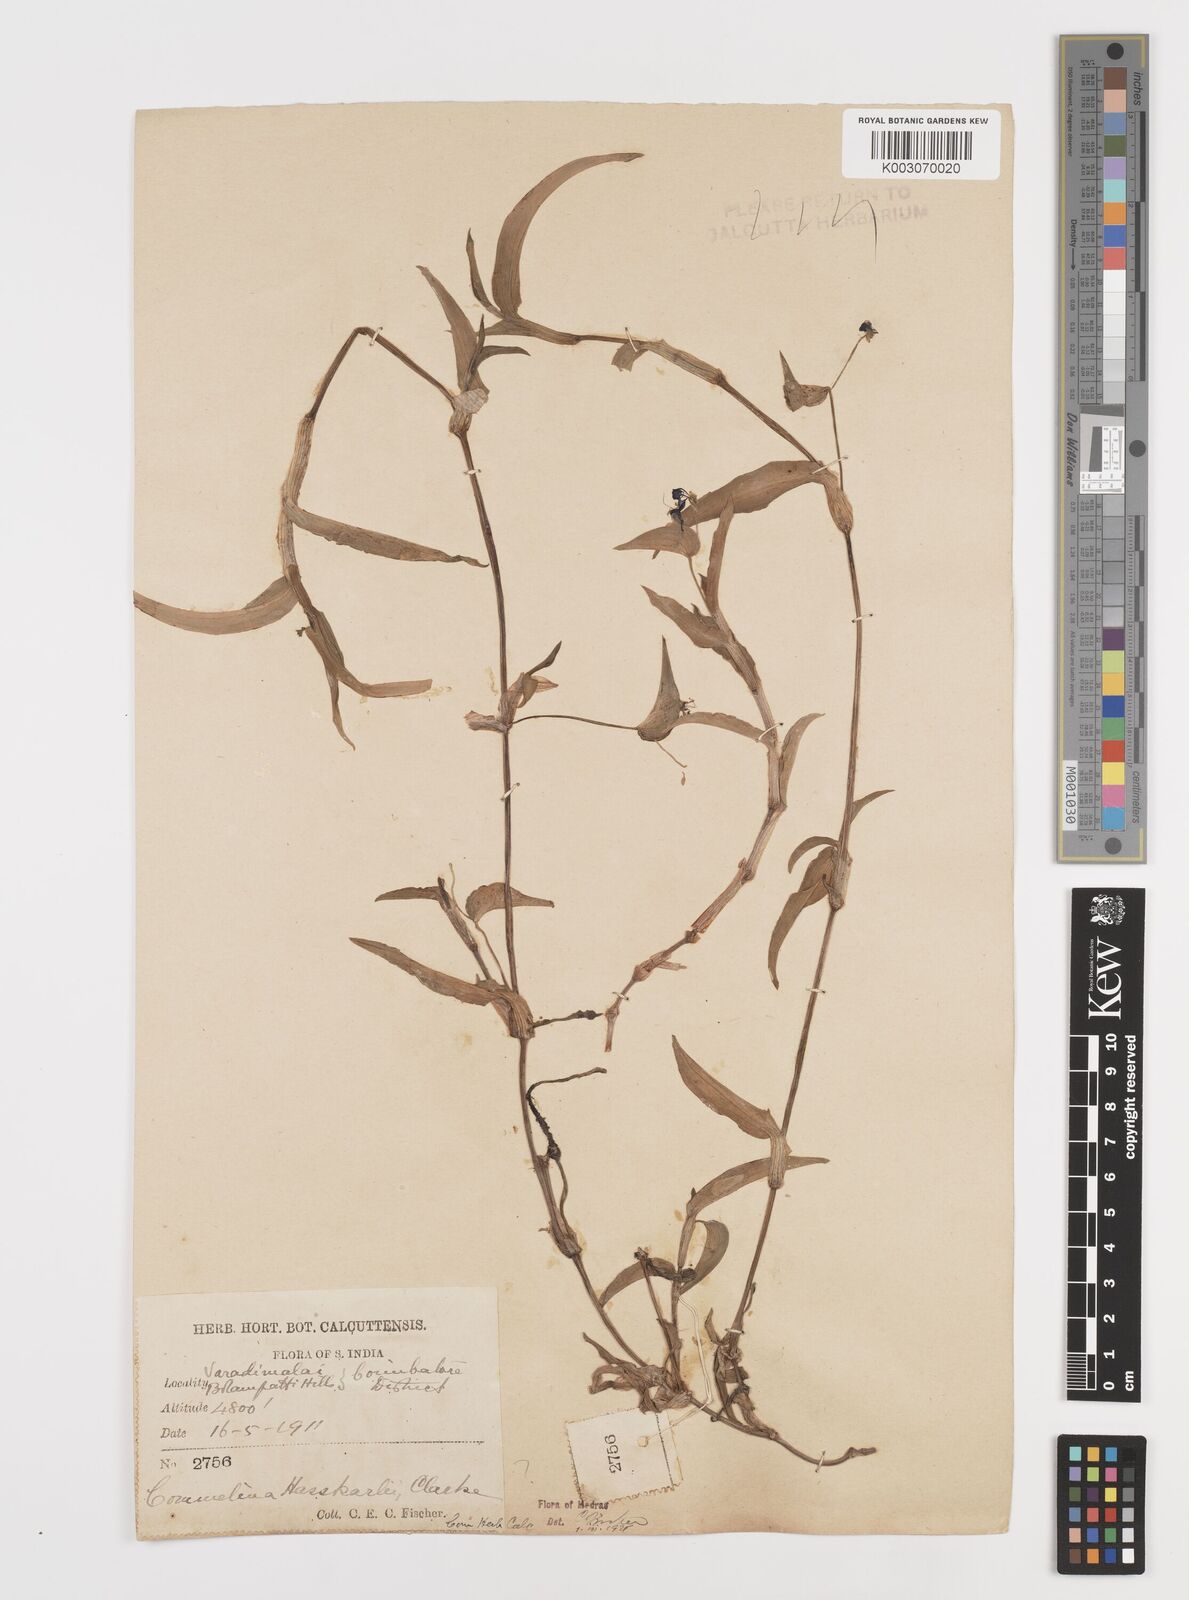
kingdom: Plantae
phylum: Tracheophyta
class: Liliopsida
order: Commelinales
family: Commelinaceae
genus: Commelina
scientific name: Commelina caroliniana
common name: Carolina dayflower
